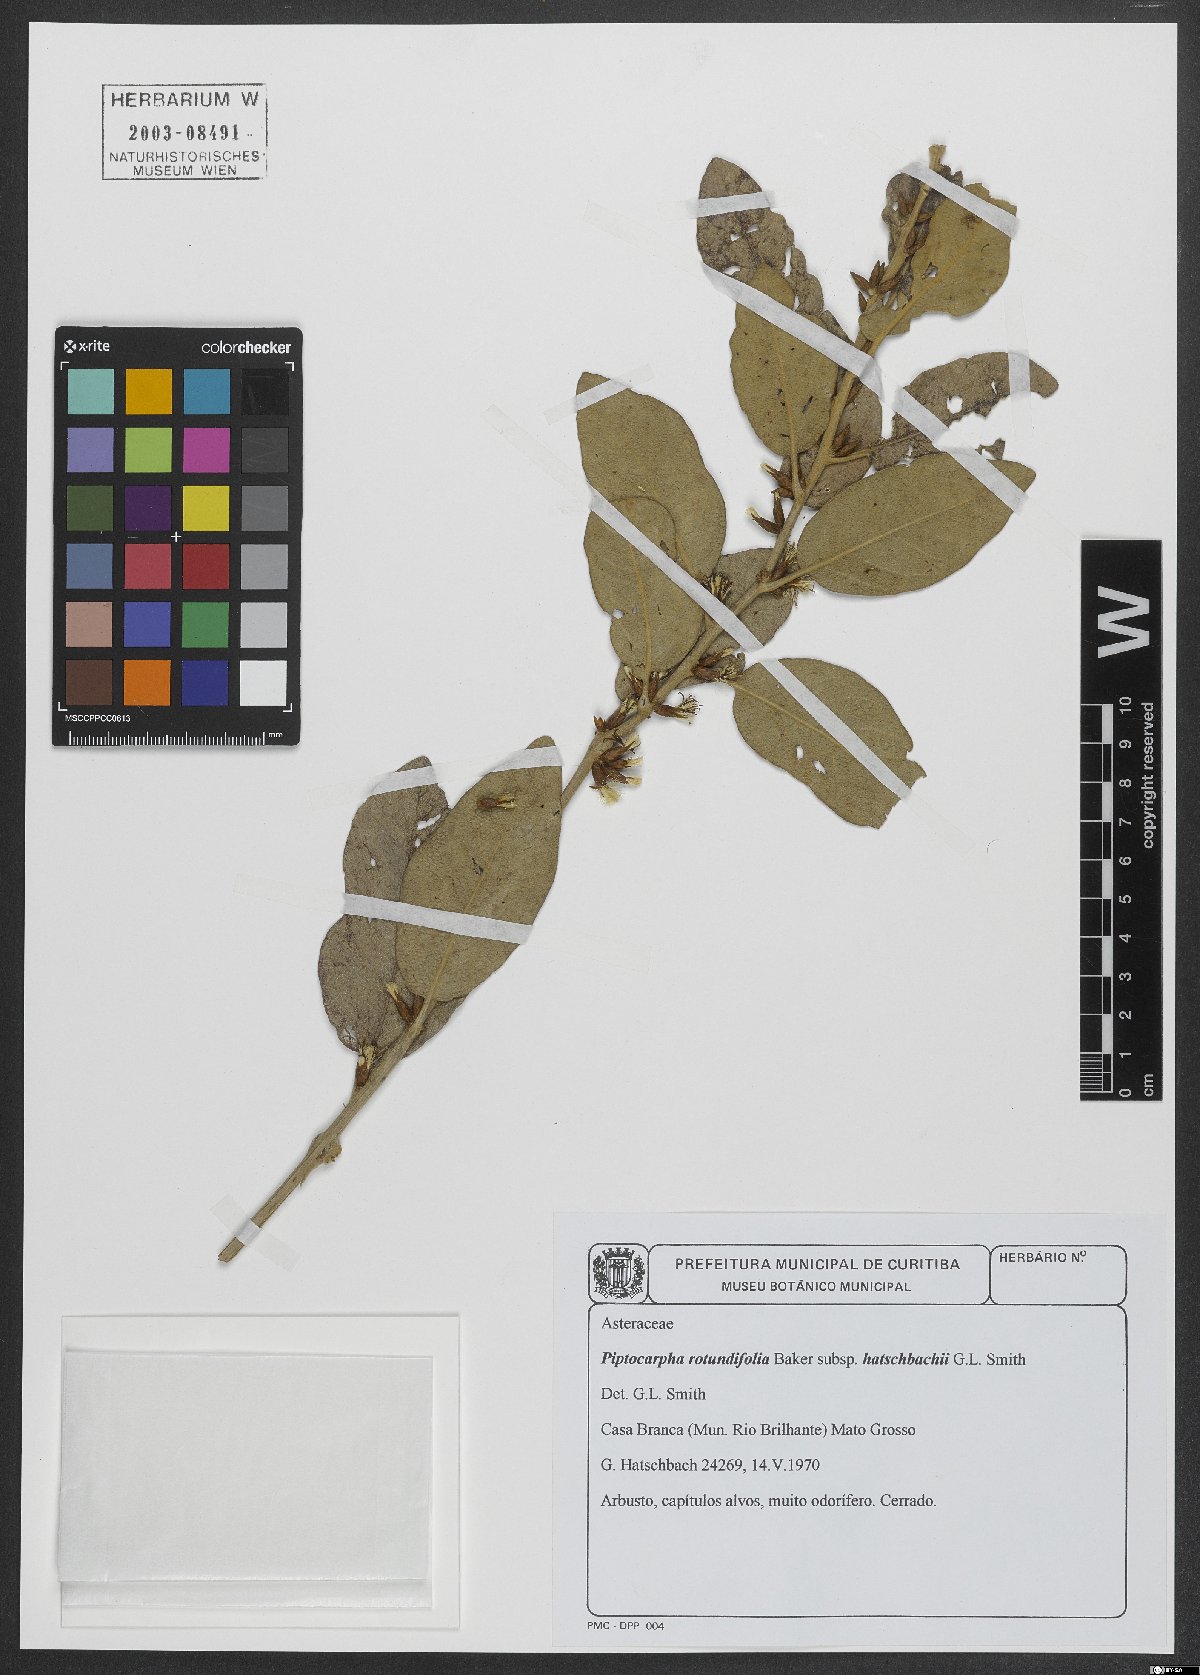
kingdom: Plantae
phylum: Tracheophyta
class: Magnoliopsida
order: Asterales
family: Asteraceae
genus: Piptocarpha
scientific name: Piptocarpha rotundifolia
